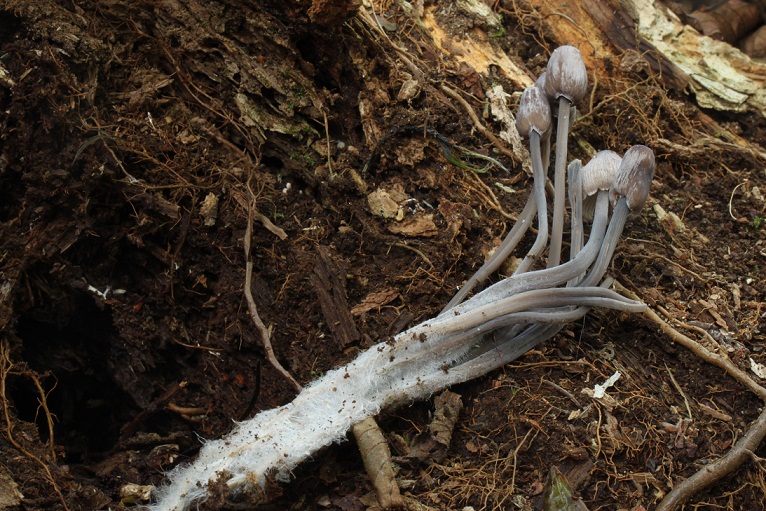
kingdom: Fungi
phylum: Basidiomycota
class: Agaricomycetes
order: Agaricales
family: Mycenaceae
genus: Mycena
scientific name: Mycena
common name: huesvamp
